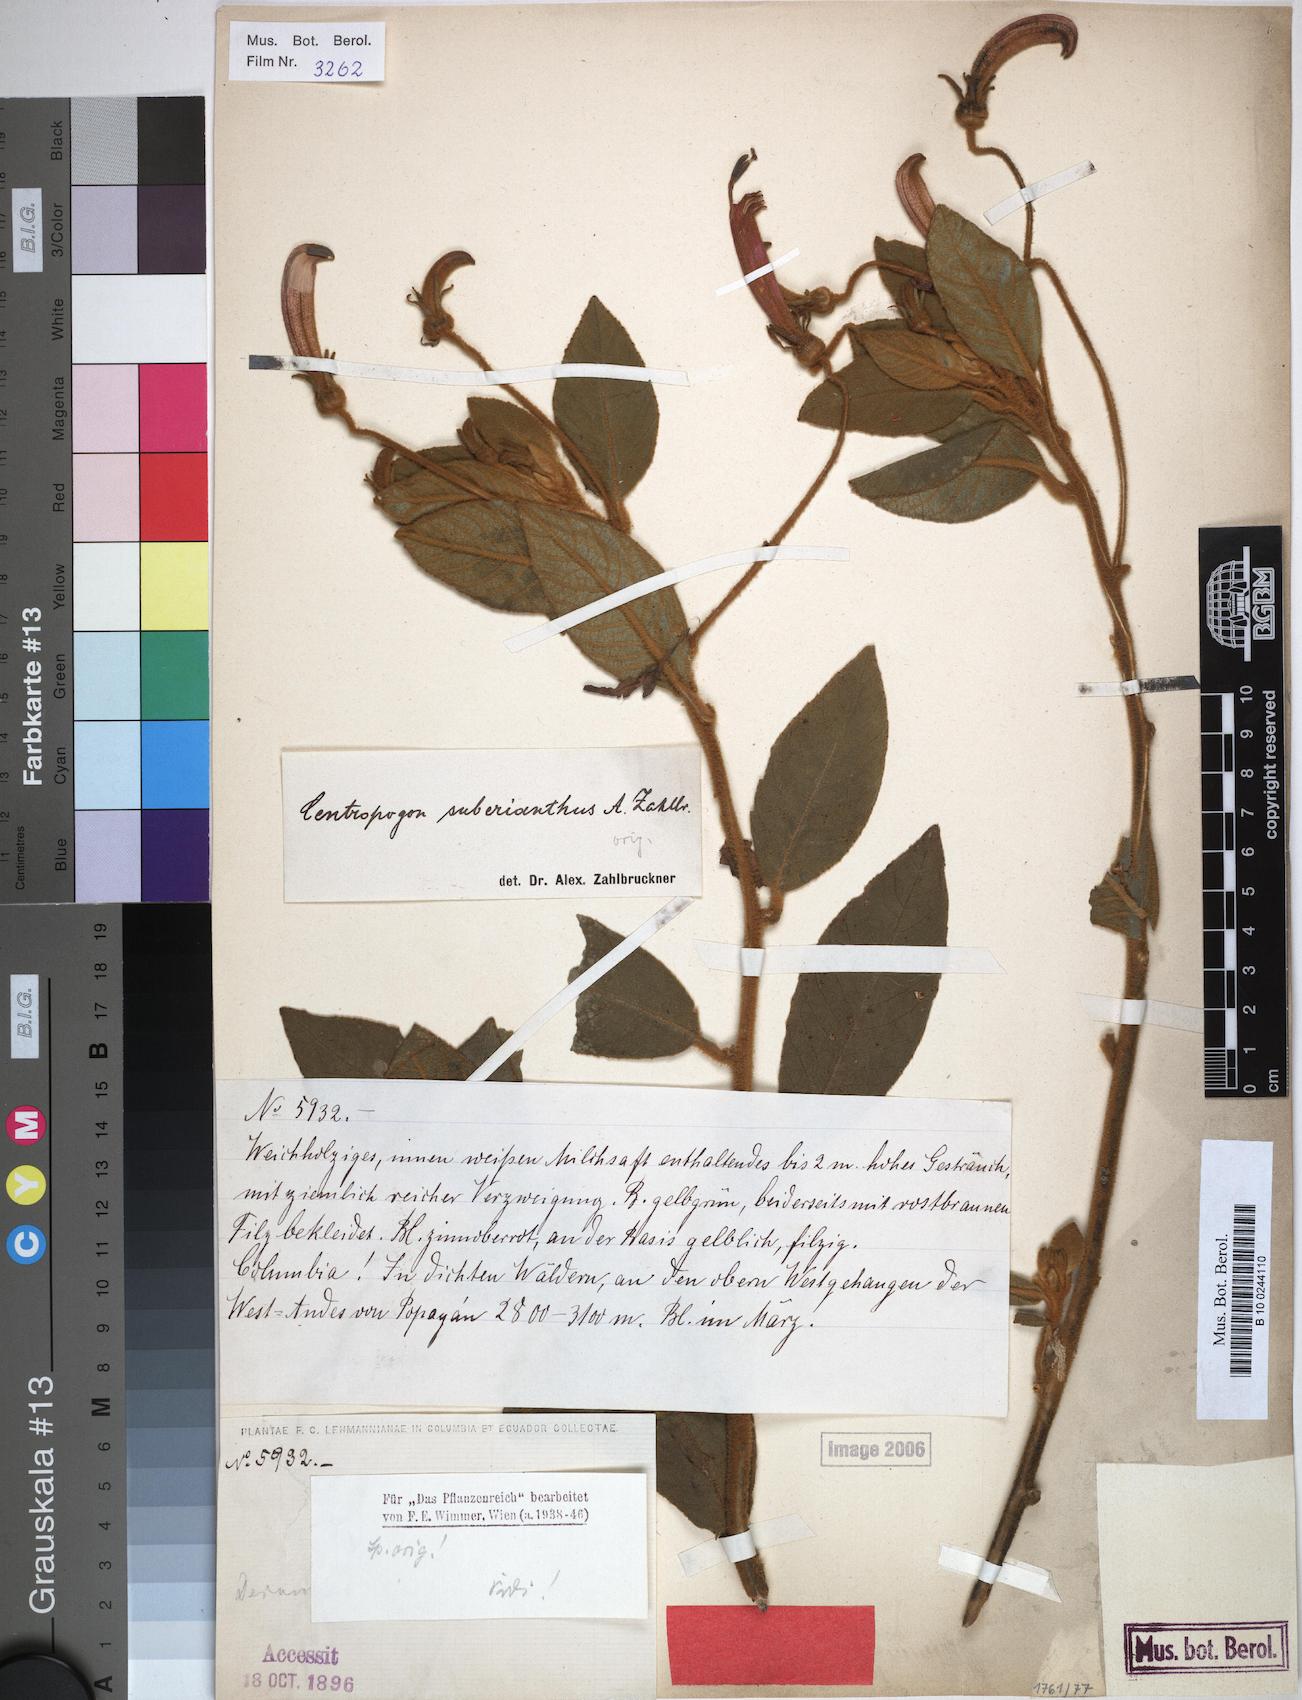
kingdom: Plantae
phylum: Tracheophyta
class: Magnoliopsida
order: Asterales
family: Campanulaceae
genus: Centropogon
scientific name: Centropogon suberianthus
